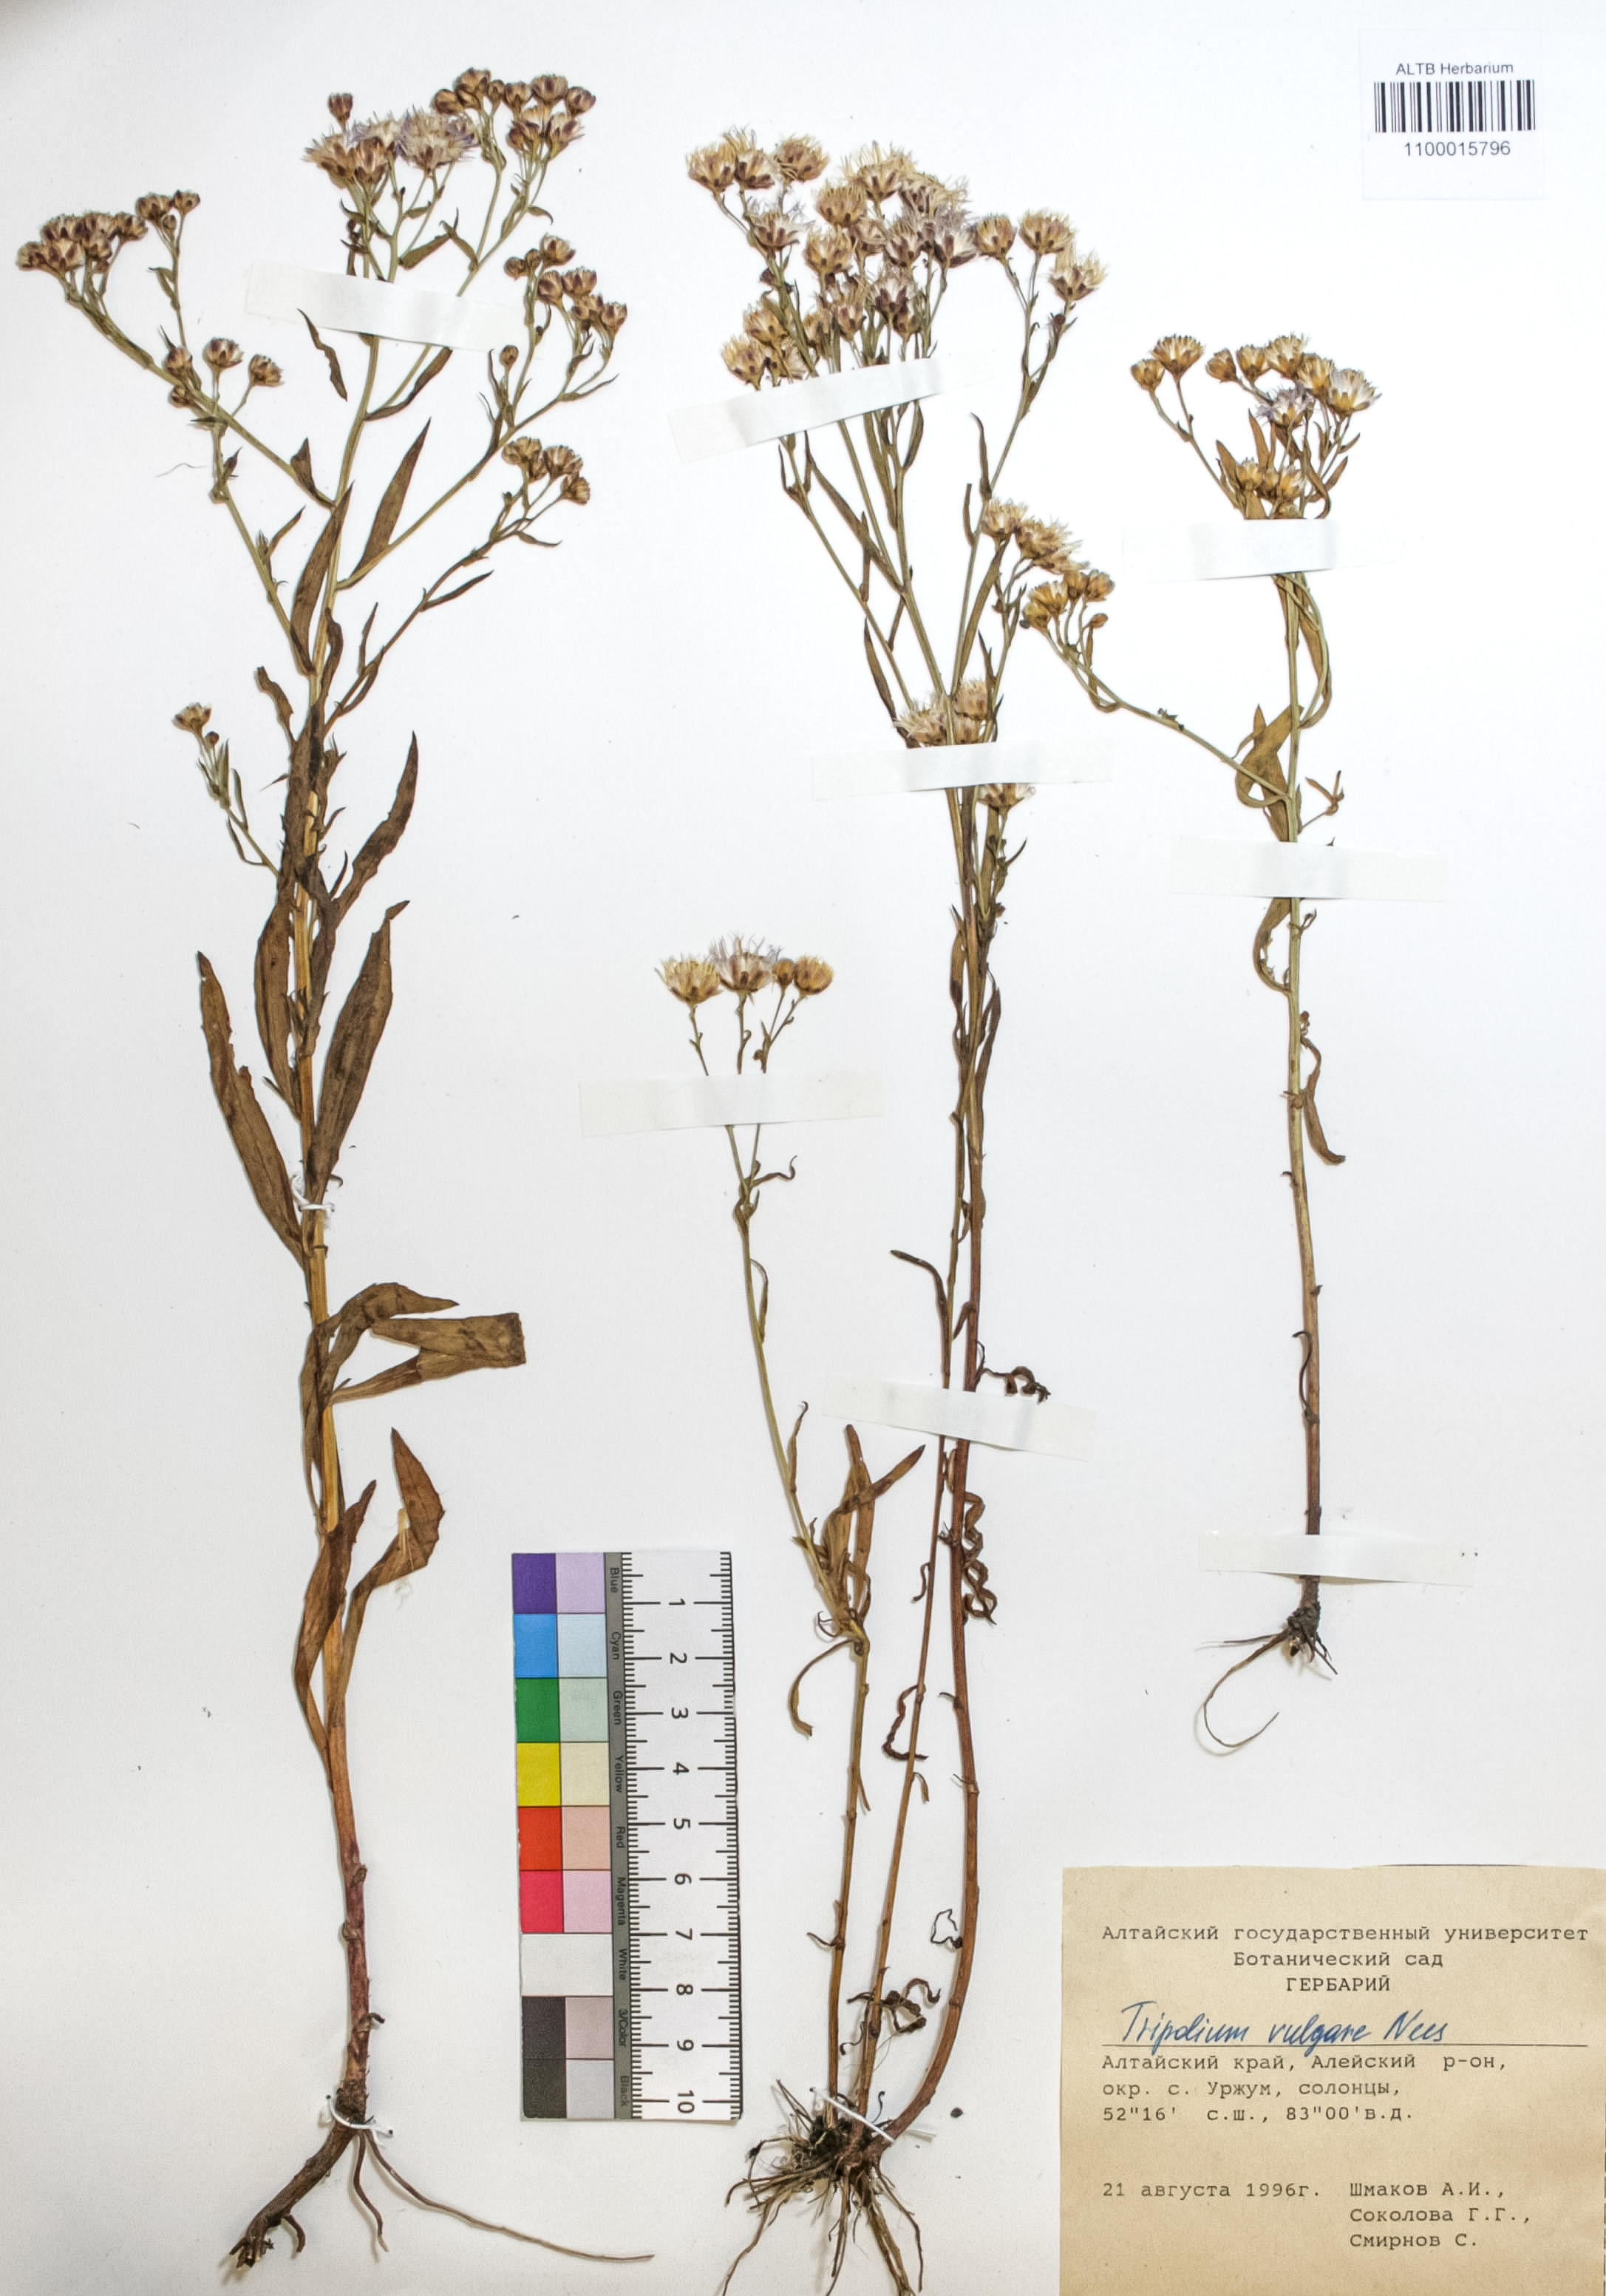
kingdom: Plantae
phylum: Tracheophyta
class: Magnoliopsida
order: Asterales
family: Asteraceae
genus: Tripolium
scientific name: Tripolium pannonicum
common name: Sea aster
